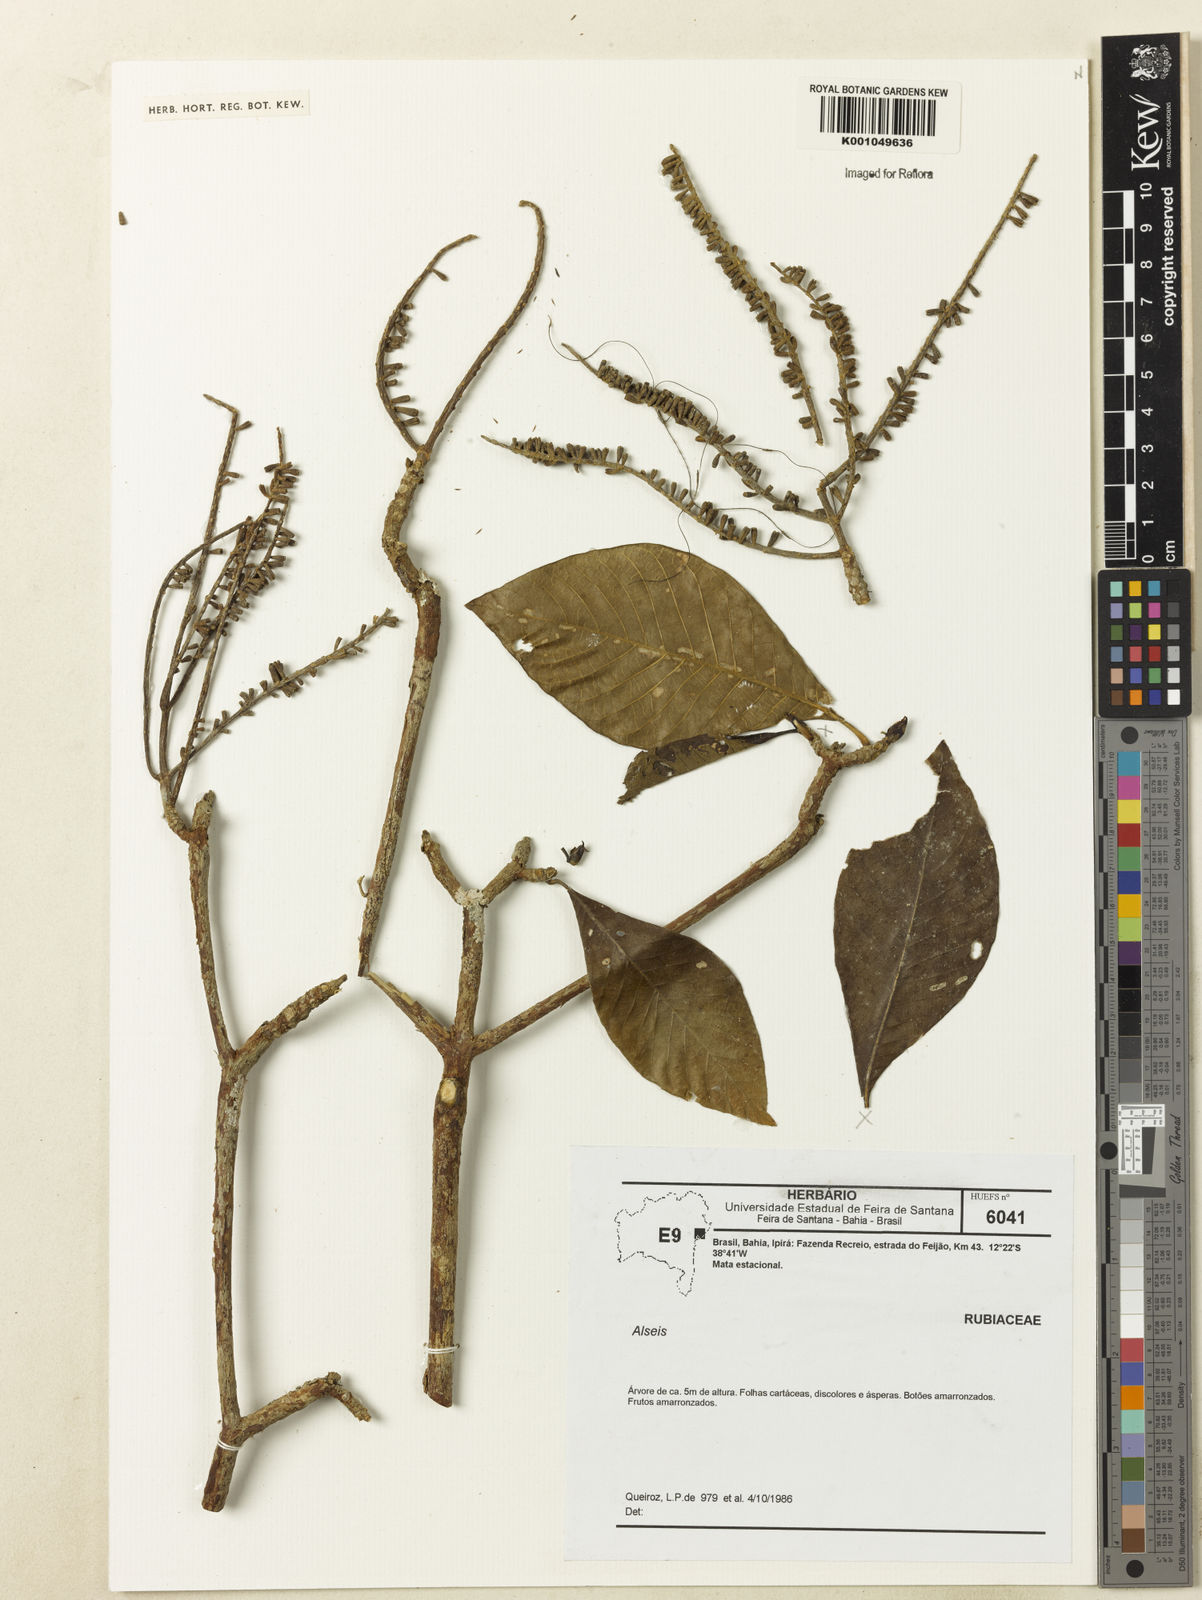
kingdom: Plantae
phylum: Tracheophyta
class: Magnoliopsida
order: Gentianales
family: Rubiaceae
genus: Alseis
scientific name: Alseis
